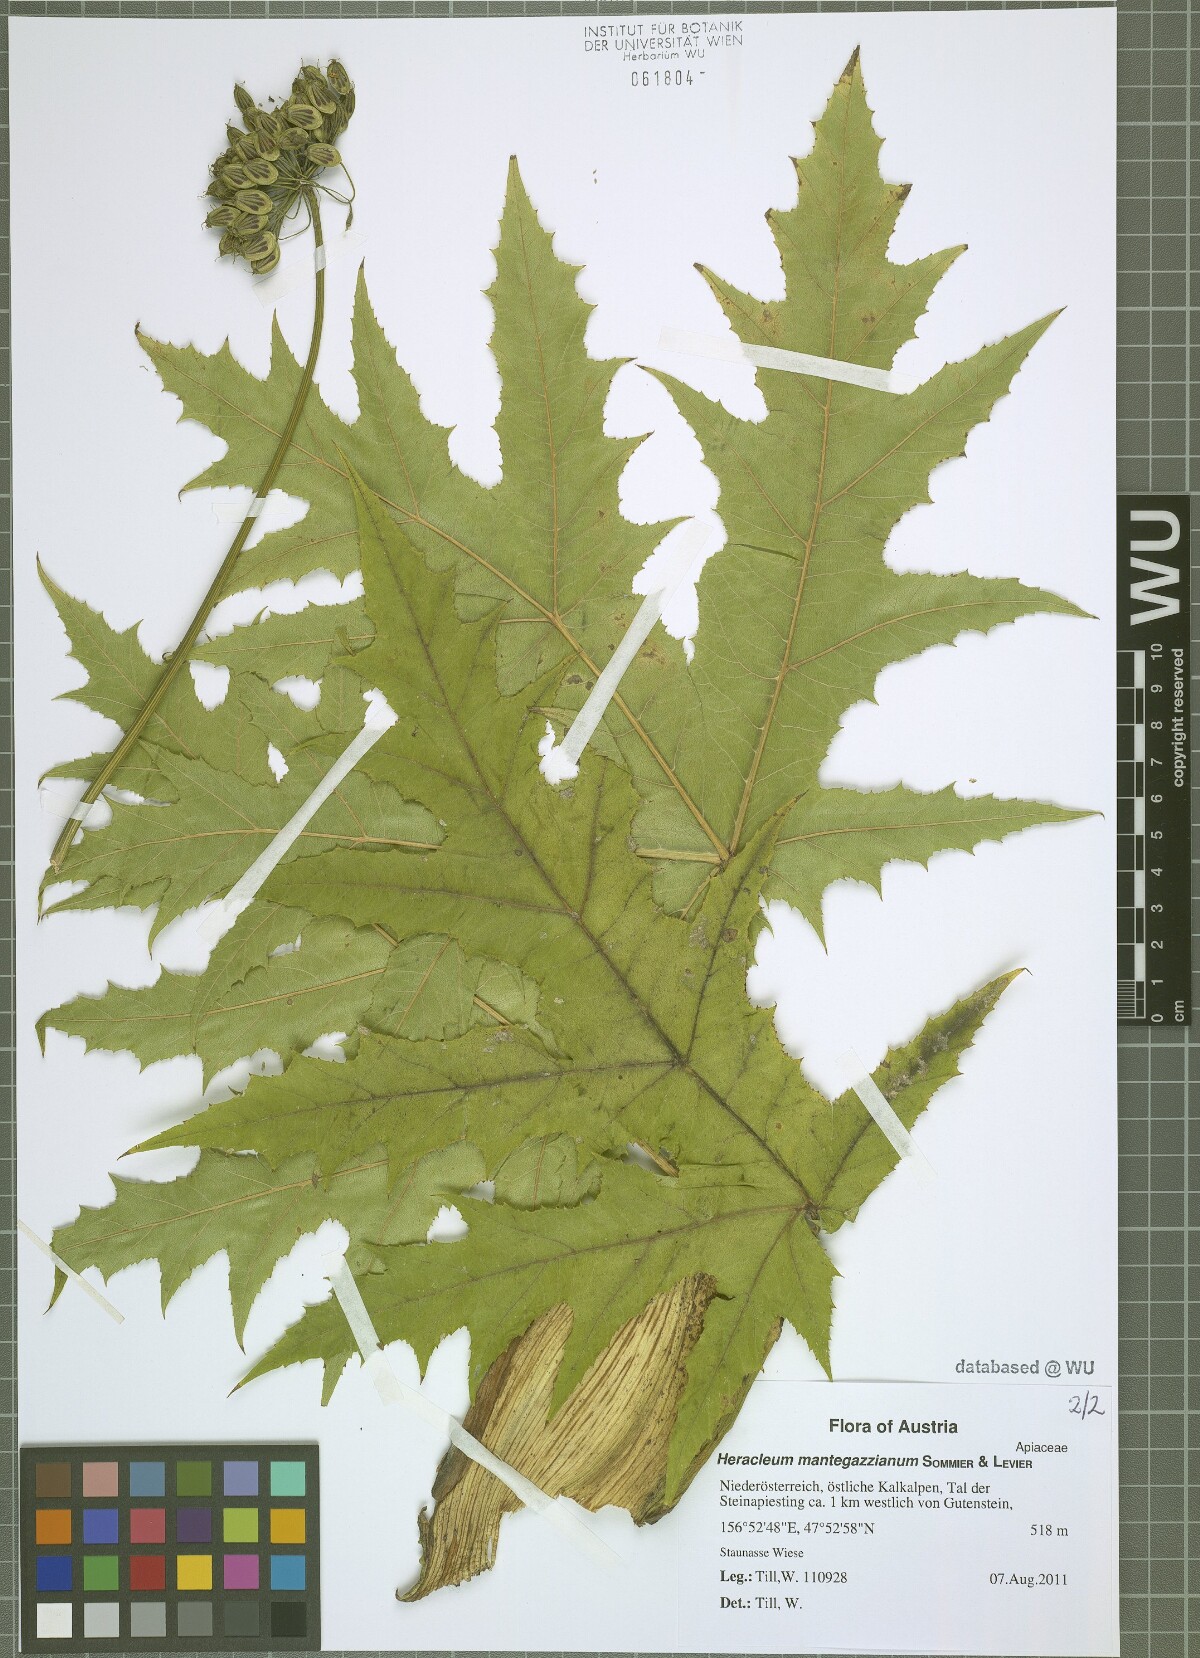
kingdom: Plantae
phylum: Tracheophyta
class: Magnoliopsida
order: Apiales
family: Apiaceae
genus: Heracleum
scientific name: Heracleum mantegazzianum
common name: Giant hogweed
